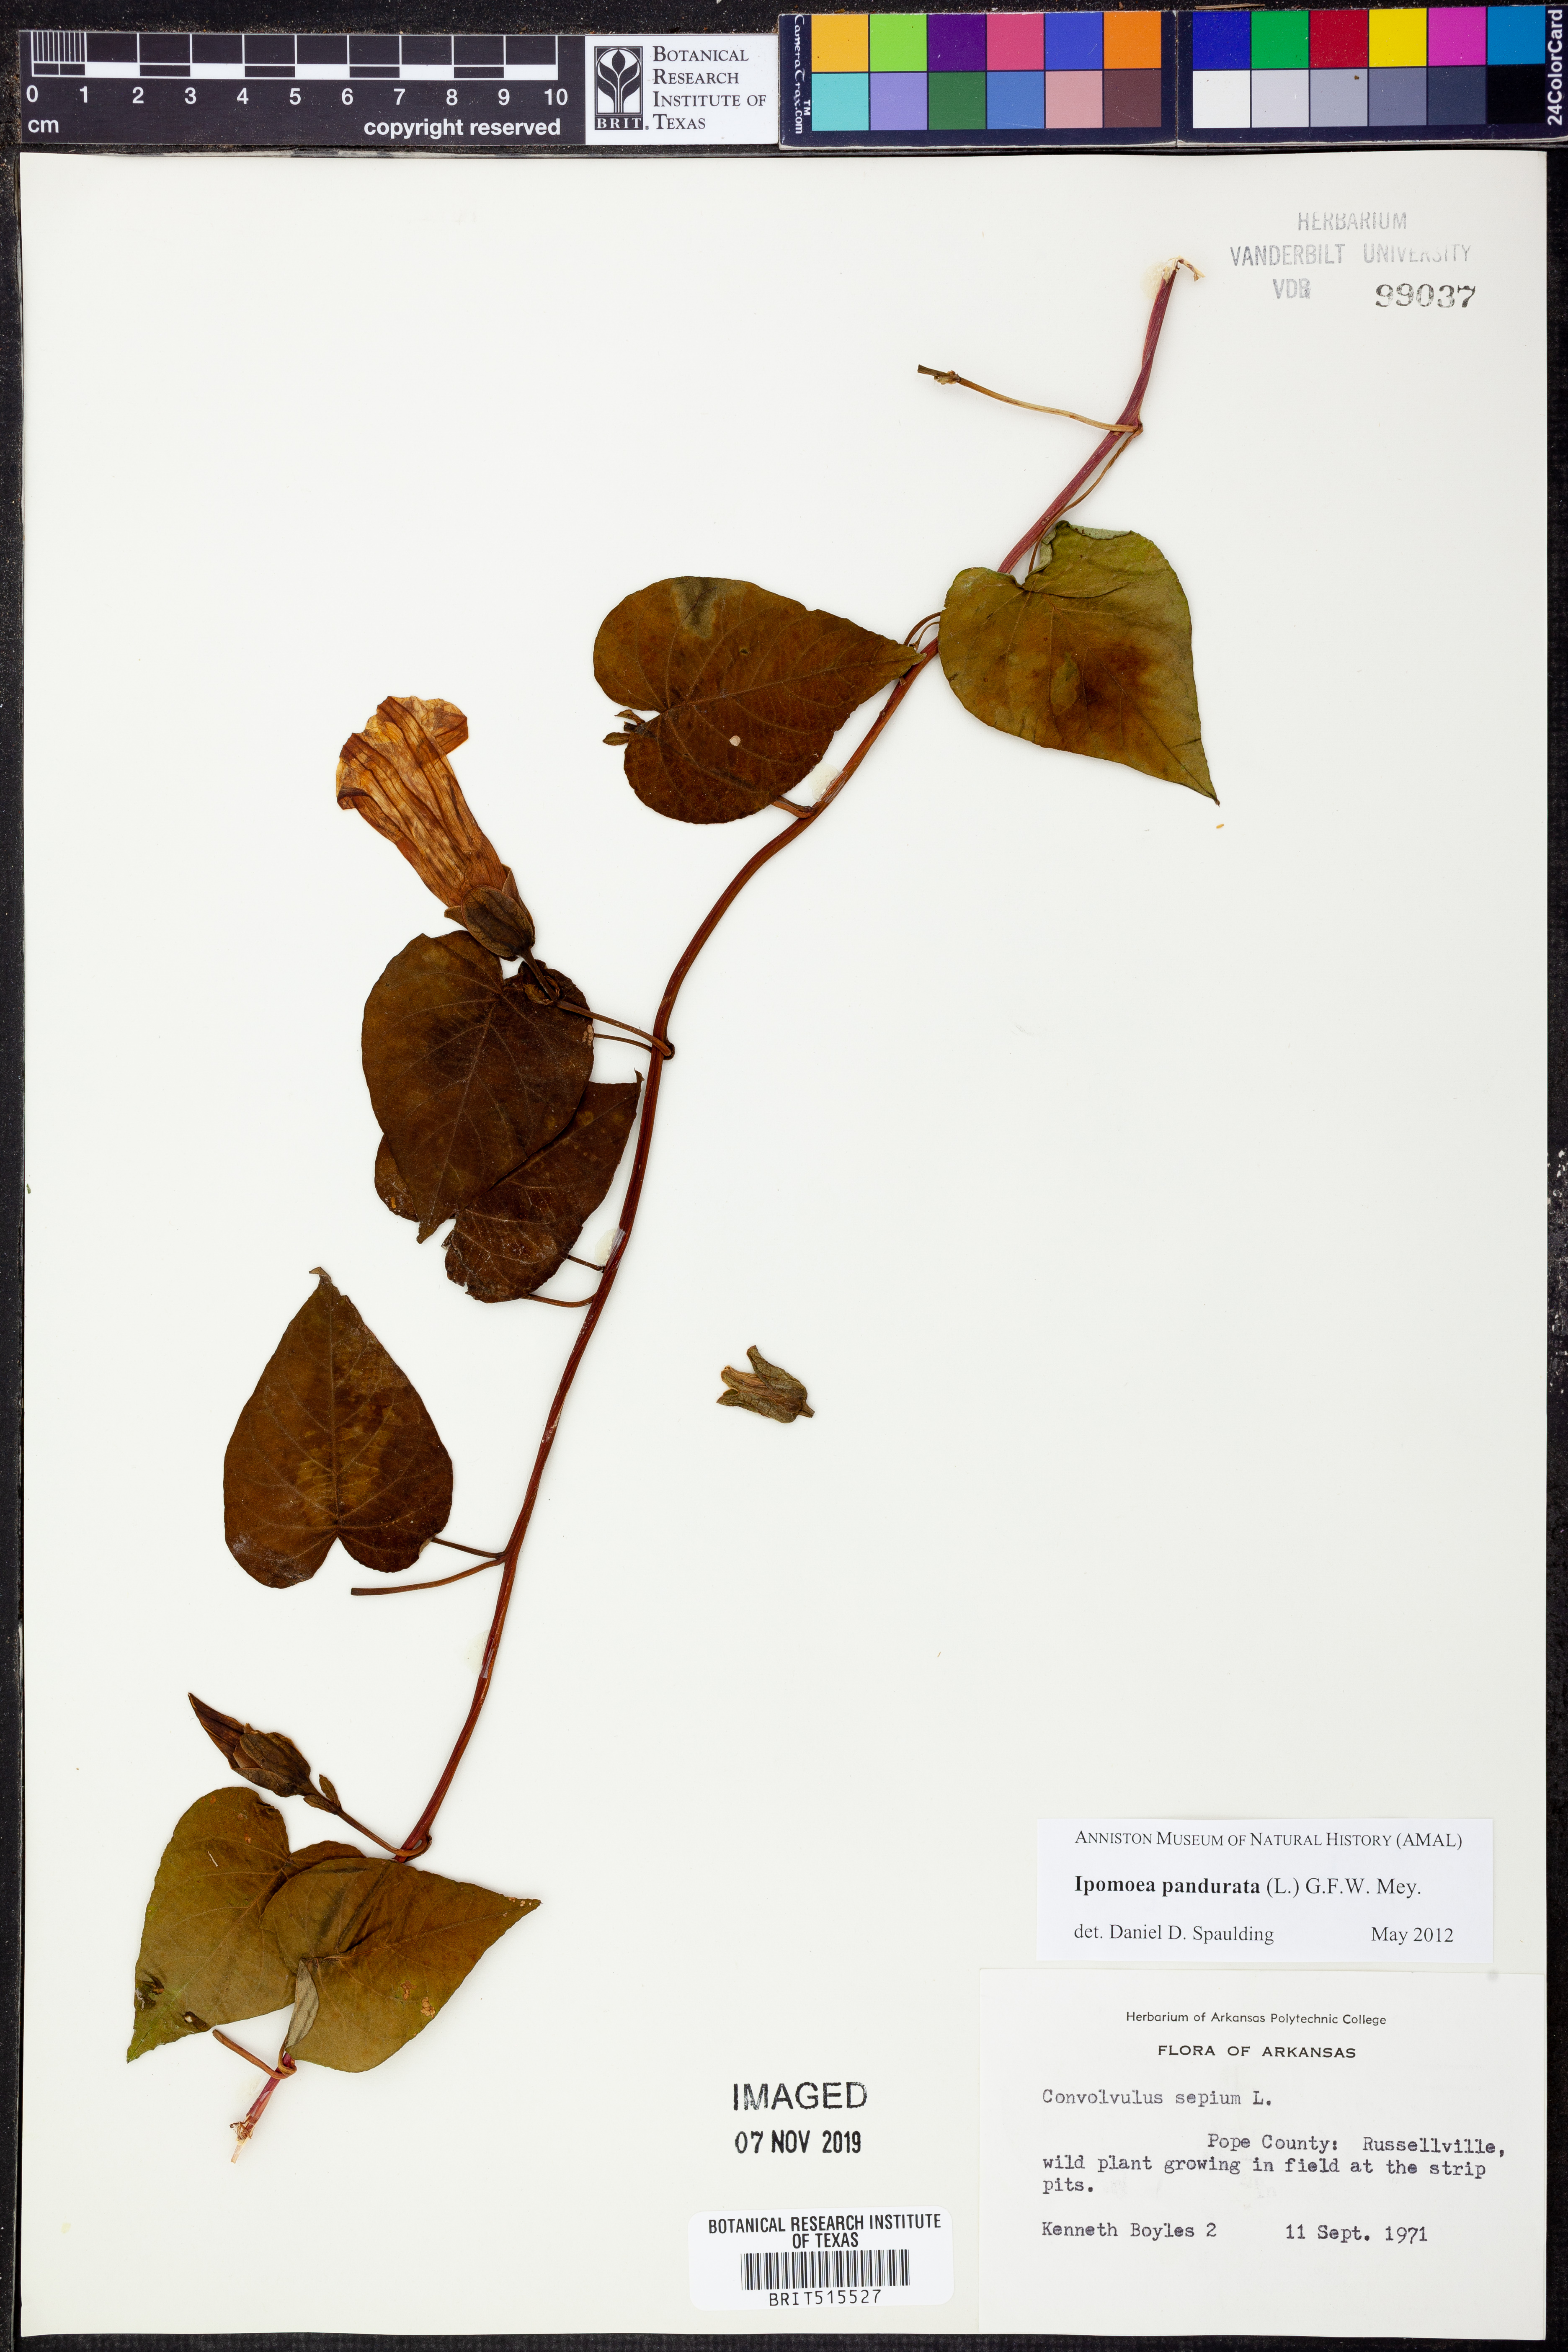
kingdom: Plantae
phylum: Tracheophyta
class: Magnoliopsida
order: Solanales
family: Convolvulaceae
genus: Ipomoea
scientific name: Ipomoea pandurata
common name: Man-of-the-earth
